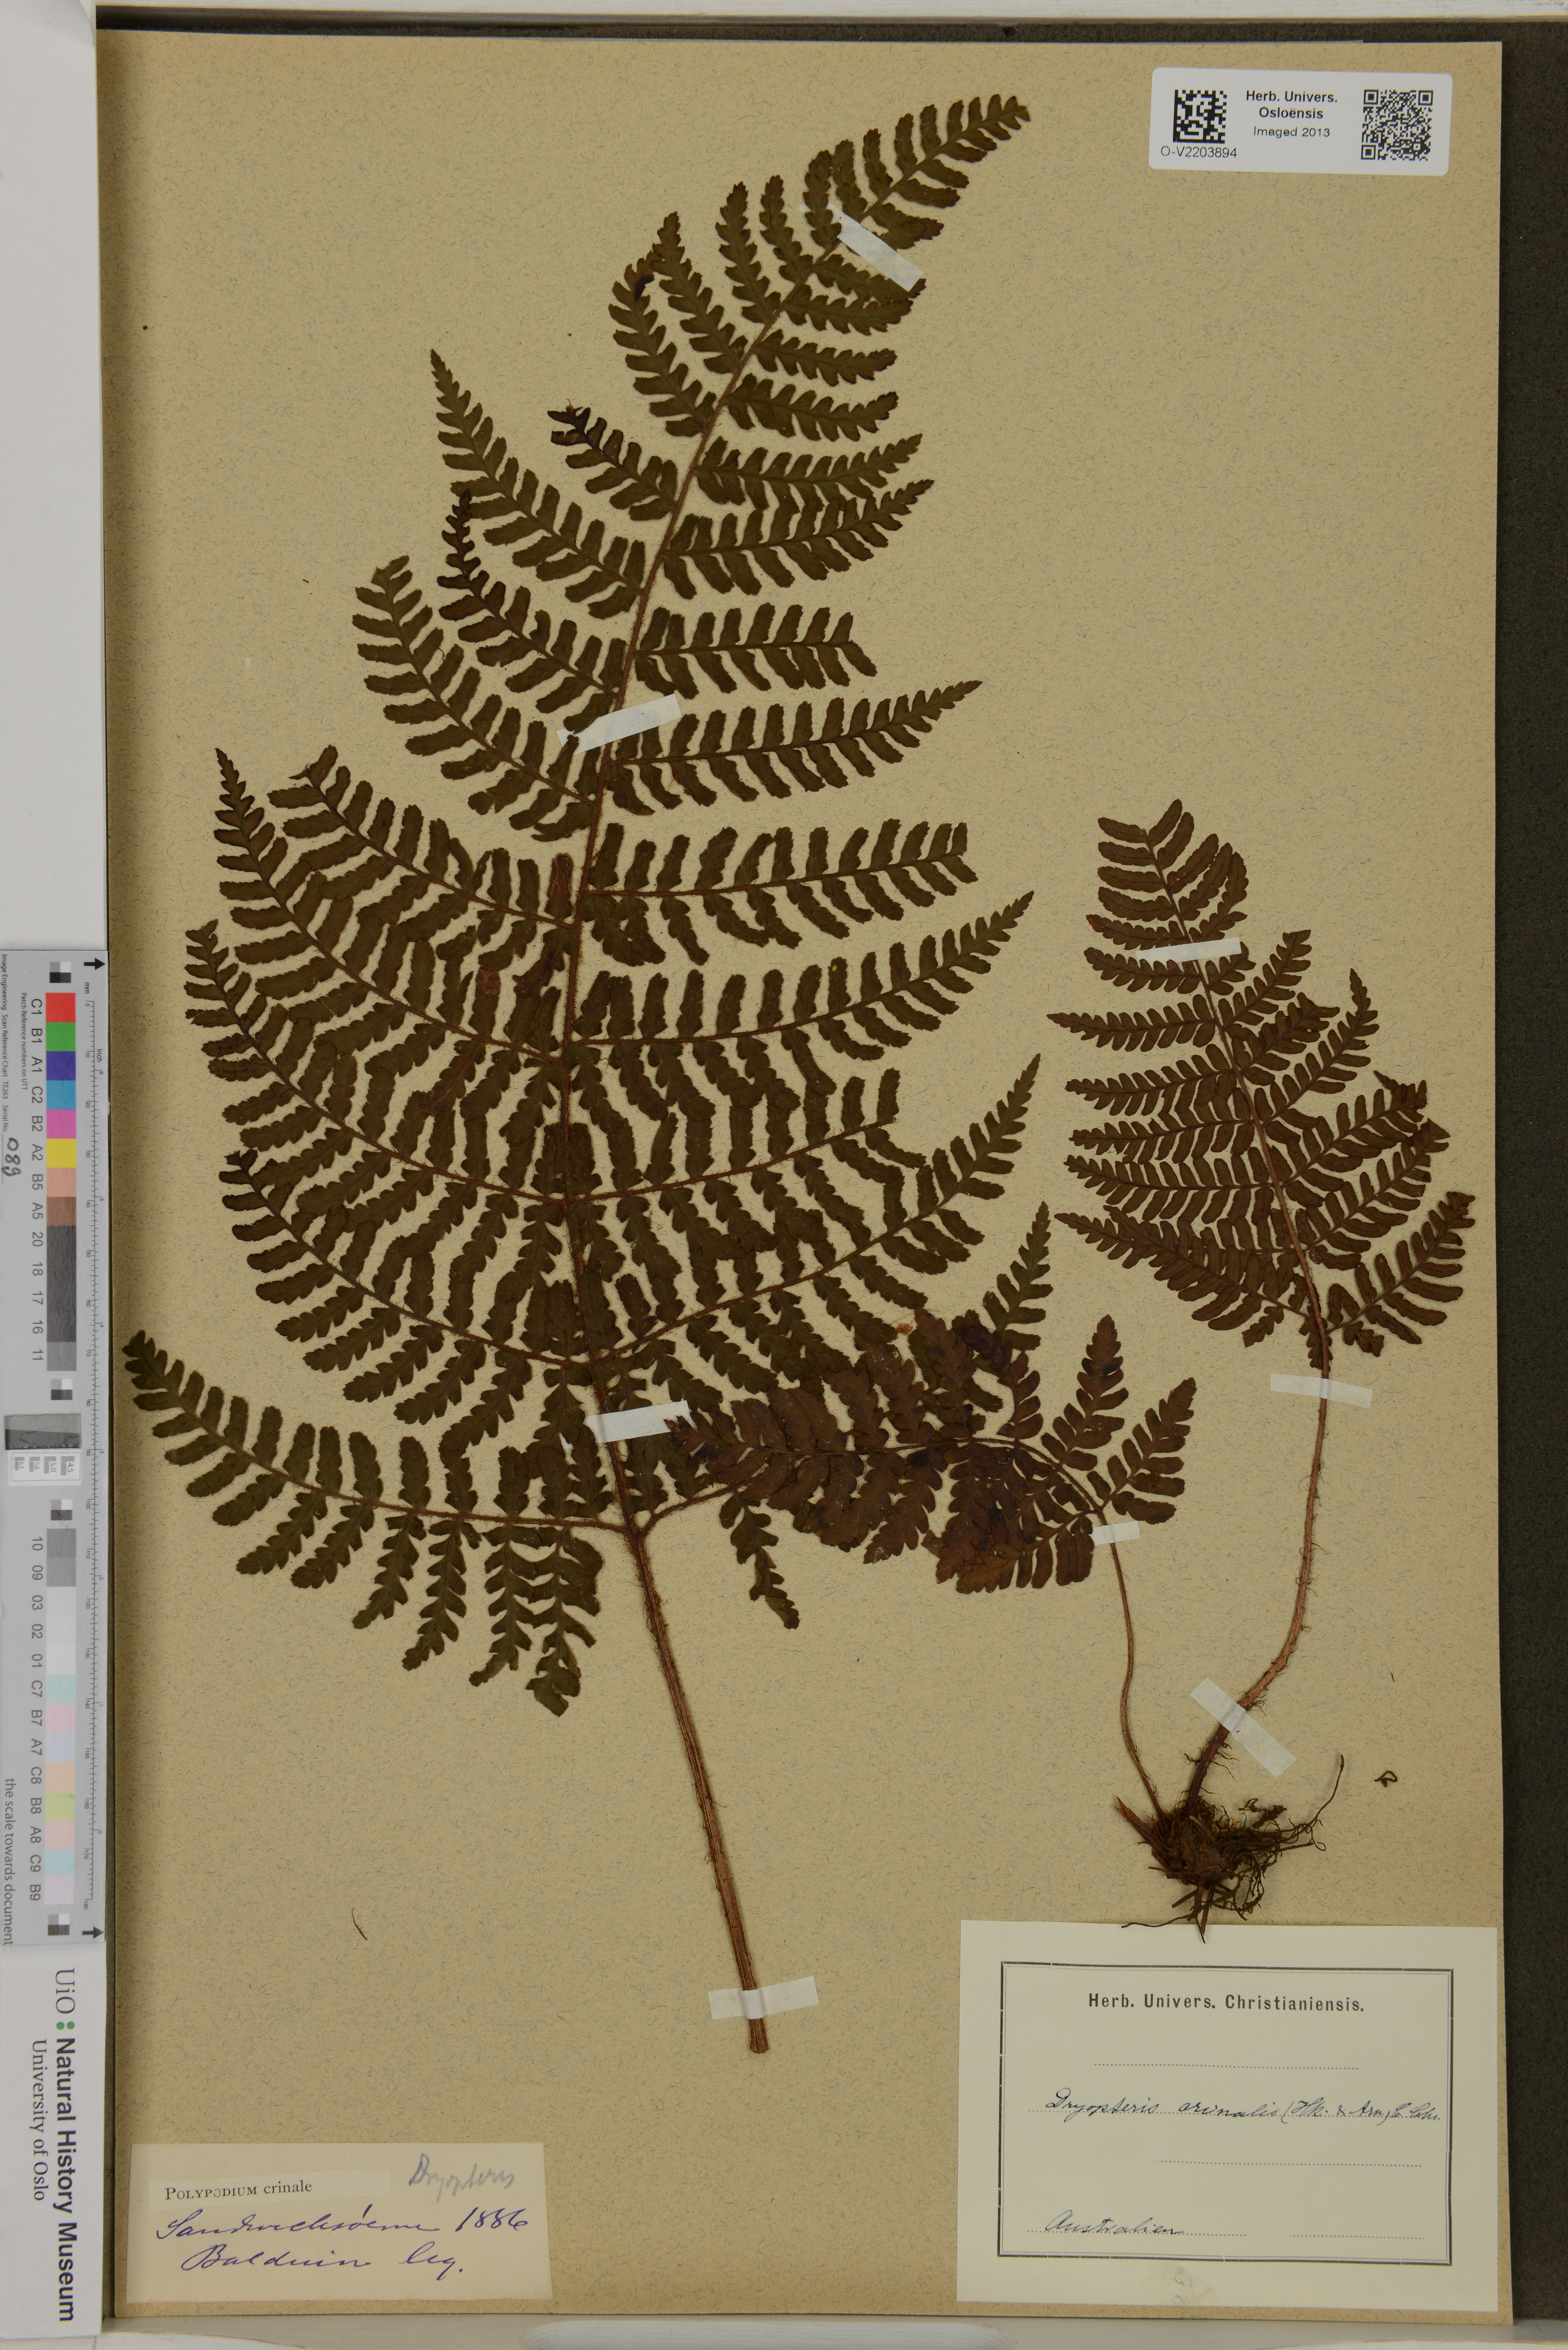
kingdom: Plantae
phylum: Tracheophyta
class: Polypodiopsida
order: Polypodiales
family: Dryopteridaceae
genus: Dryopteris
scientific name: Dryopteris crinalis
